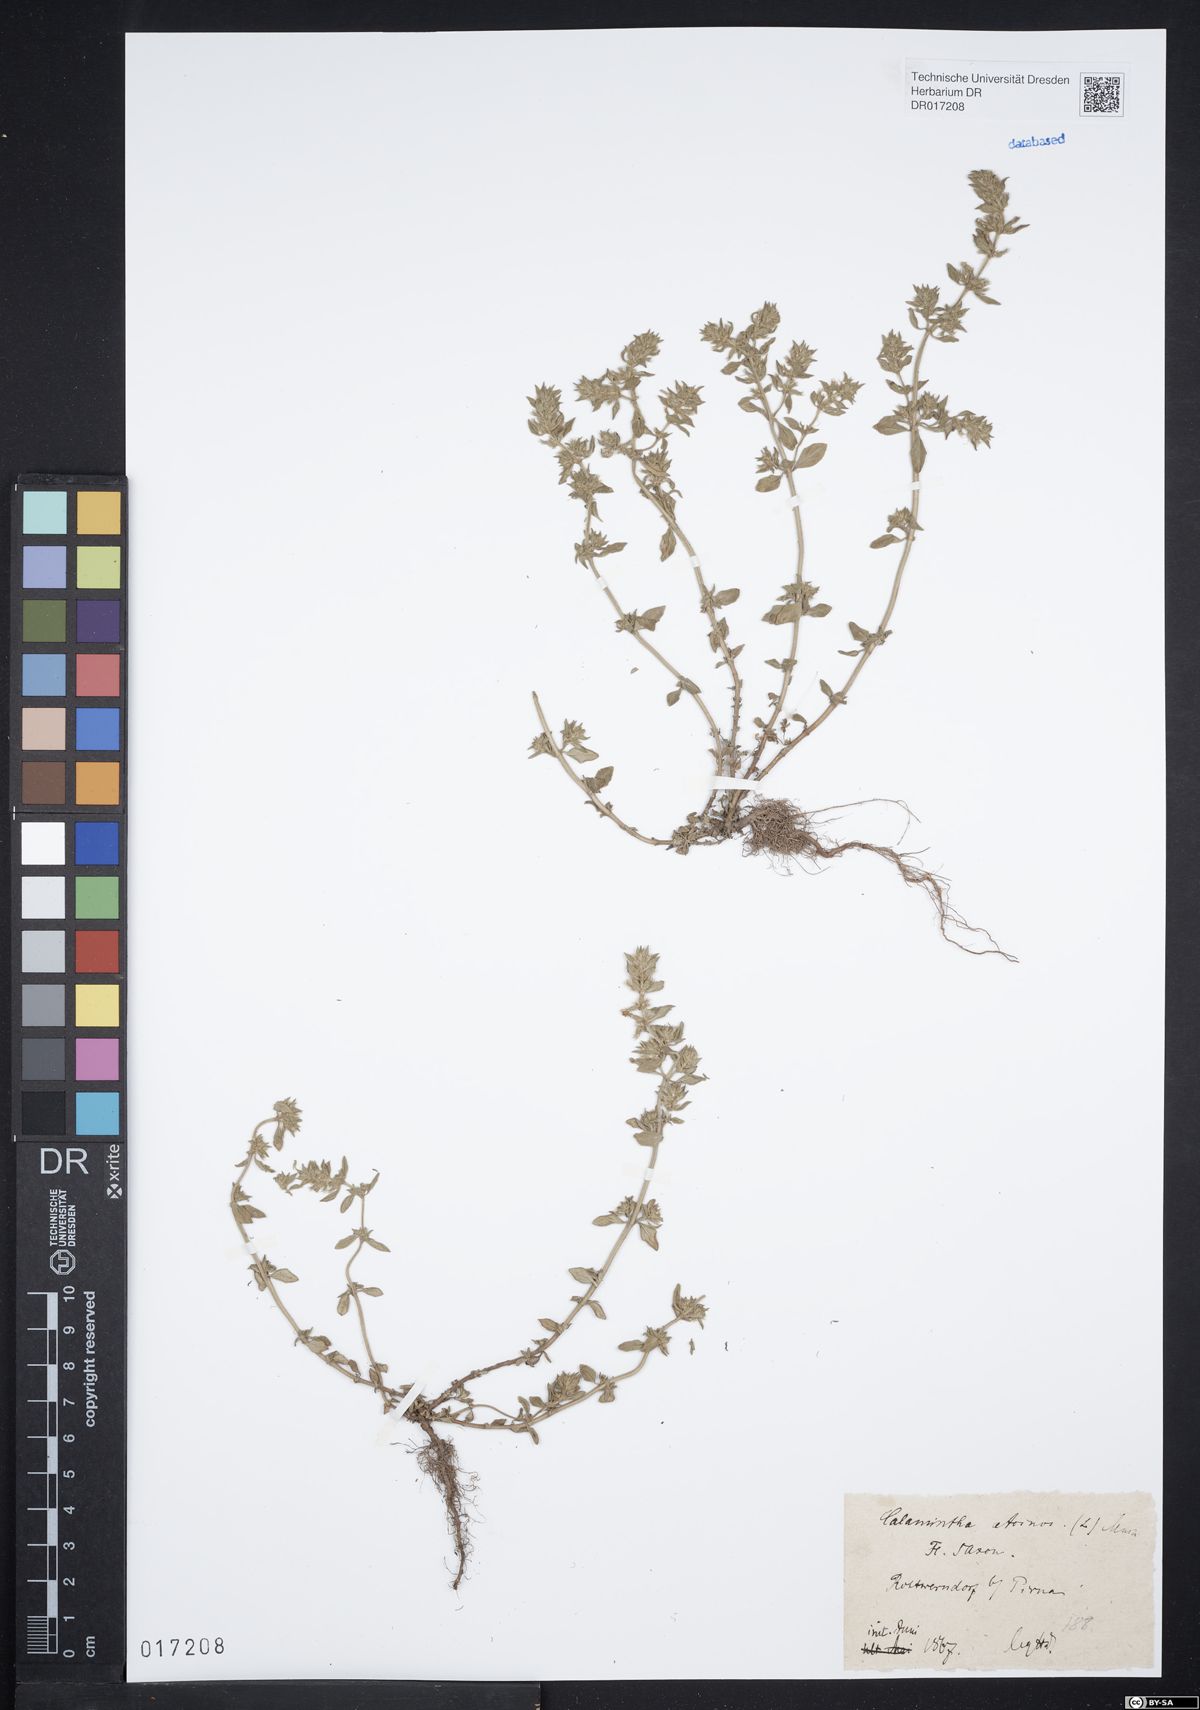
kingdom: Plantae
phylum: Tracheophyta
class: Magnoliopsida
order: Lamiales
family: Lamiaceae
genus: Clinopodium
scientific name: Clinopodium acinos
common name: Basil thyme
